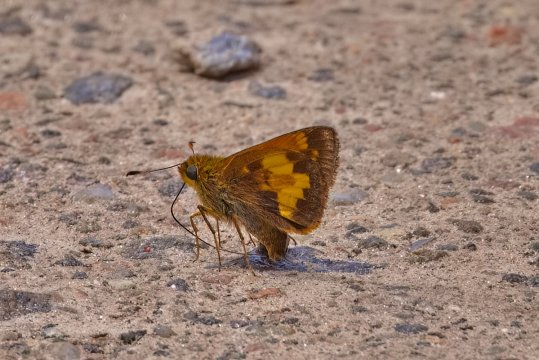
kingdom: Animalia
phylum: Arthropoda
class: Insecta
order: Lepidoptera
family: Hesperiidae
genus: Lon
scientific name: Lon hobomok
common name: Hobomok Skipper
